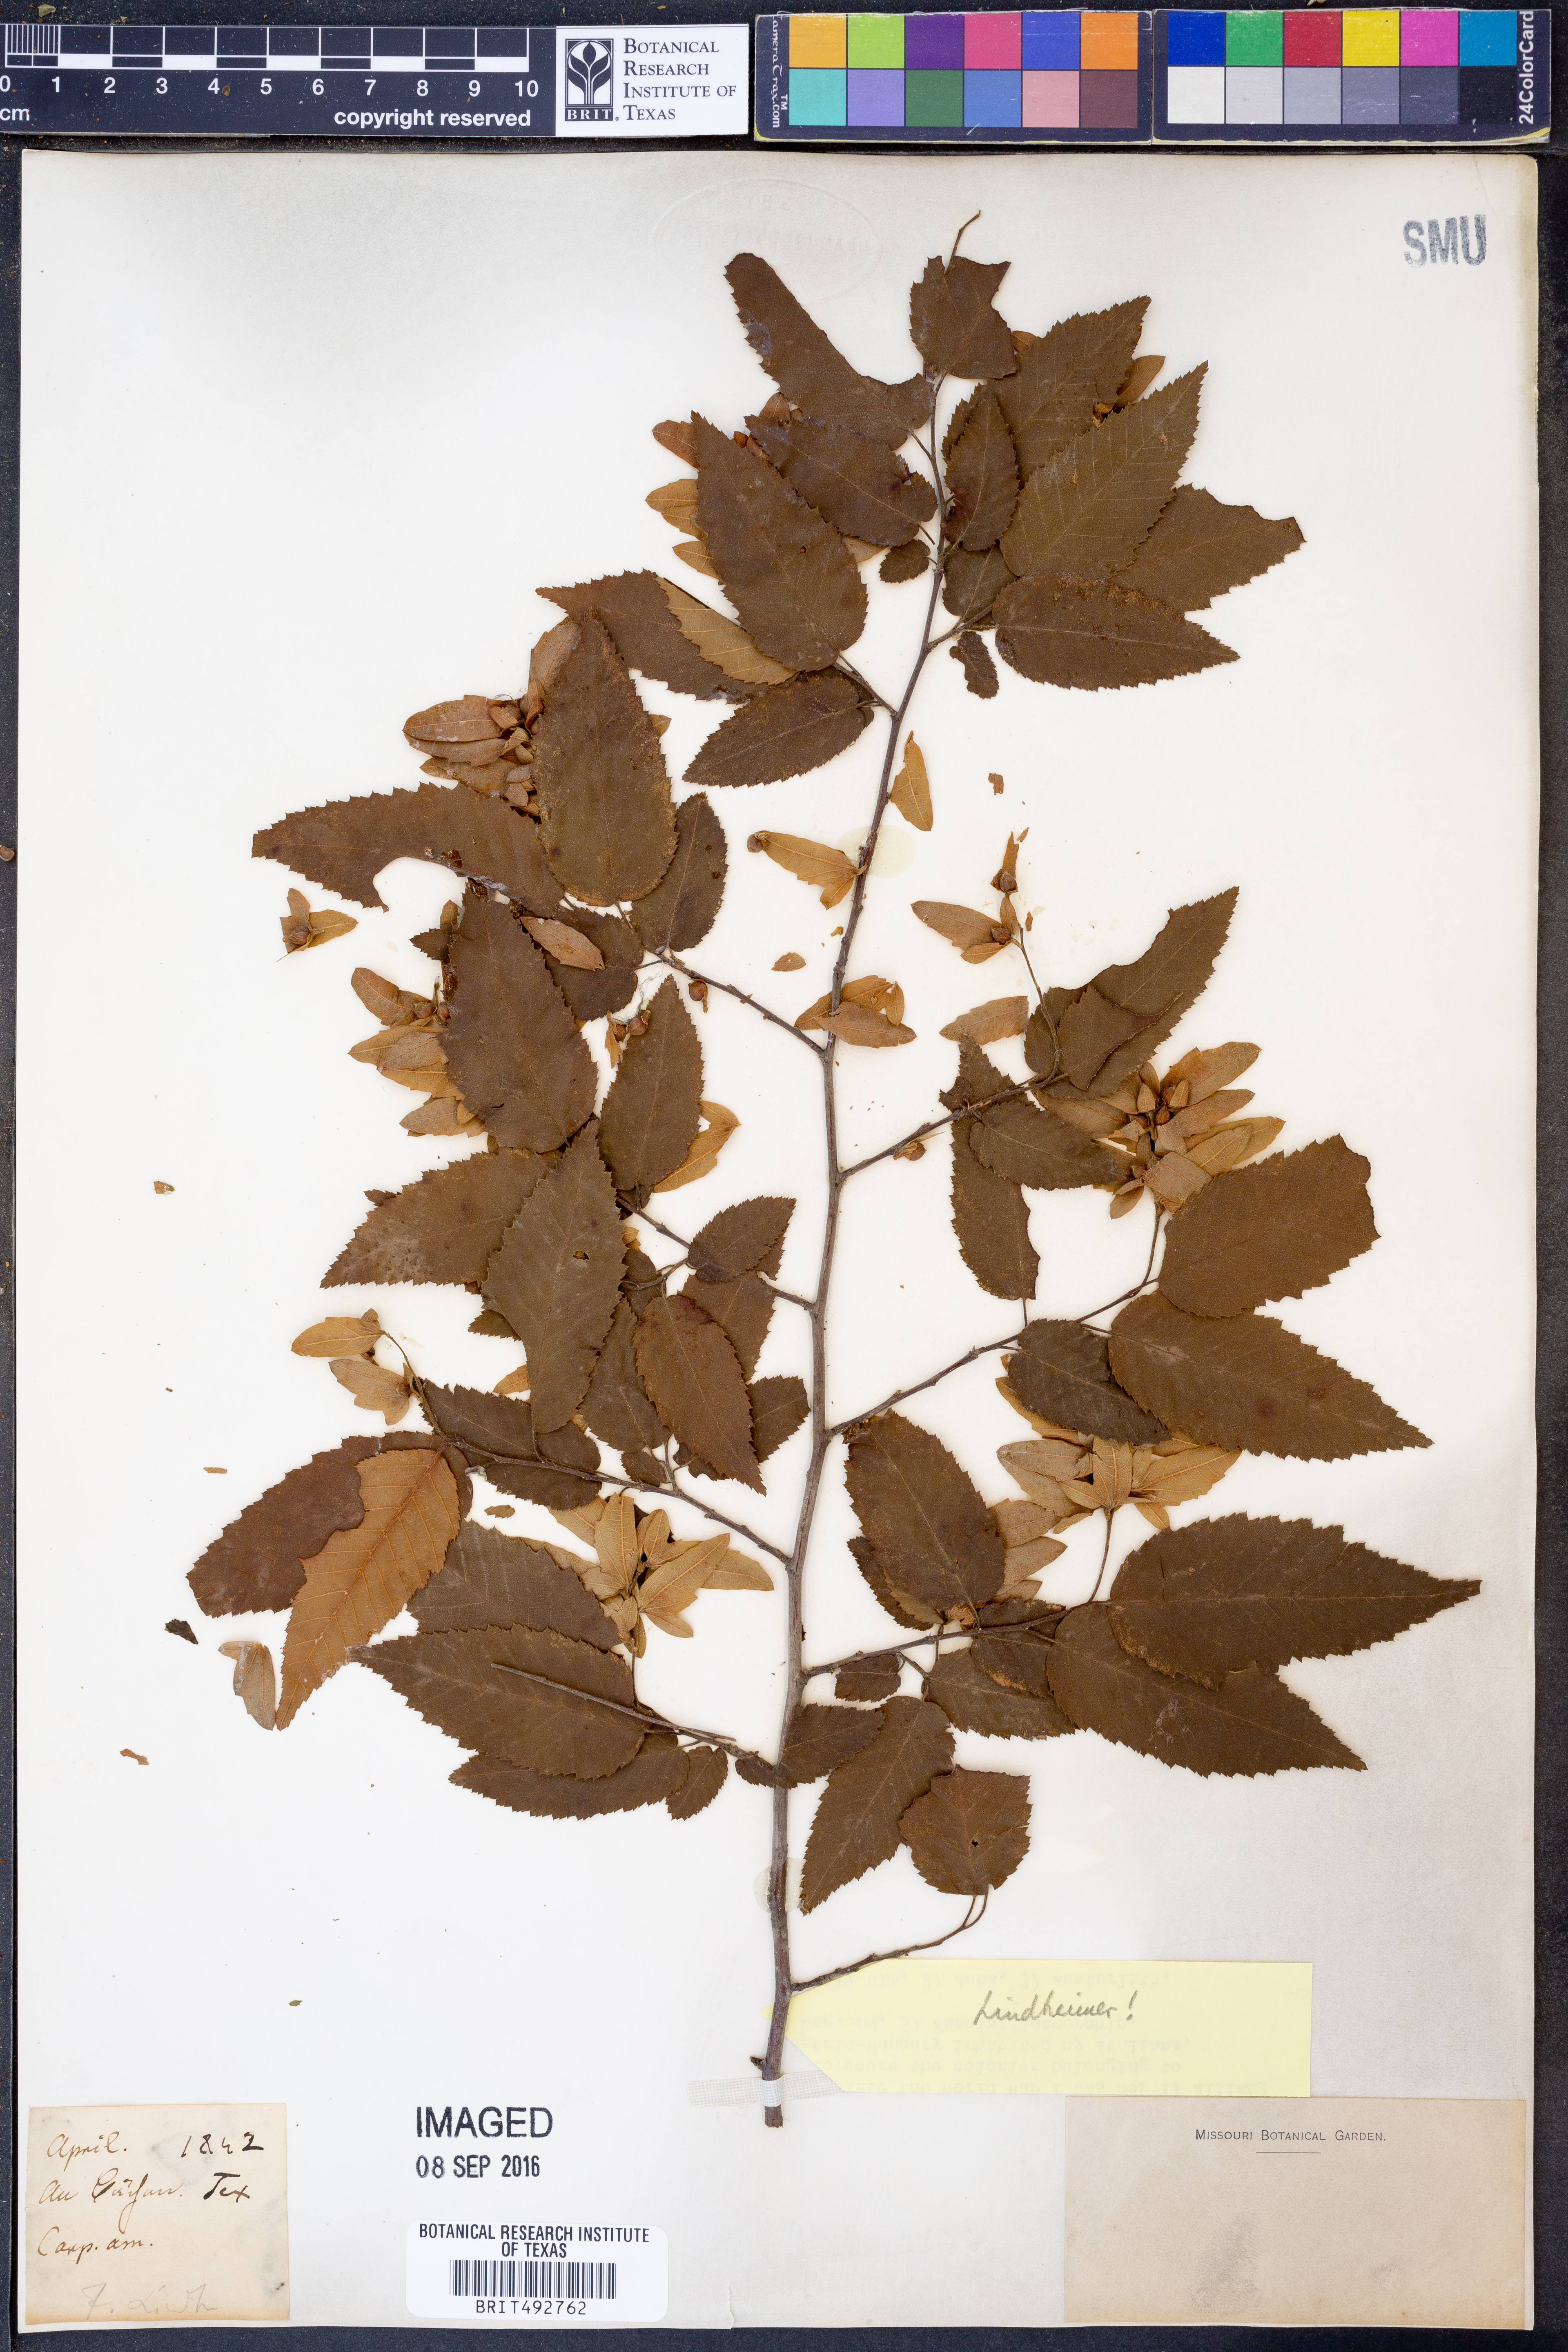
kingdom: Plantae
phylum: Tracheophyta
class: Magnoliopsida
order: Fagales
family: Betulaceae
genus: Carpinus
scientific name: Carpinus caroliniana
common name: American hornbeam
